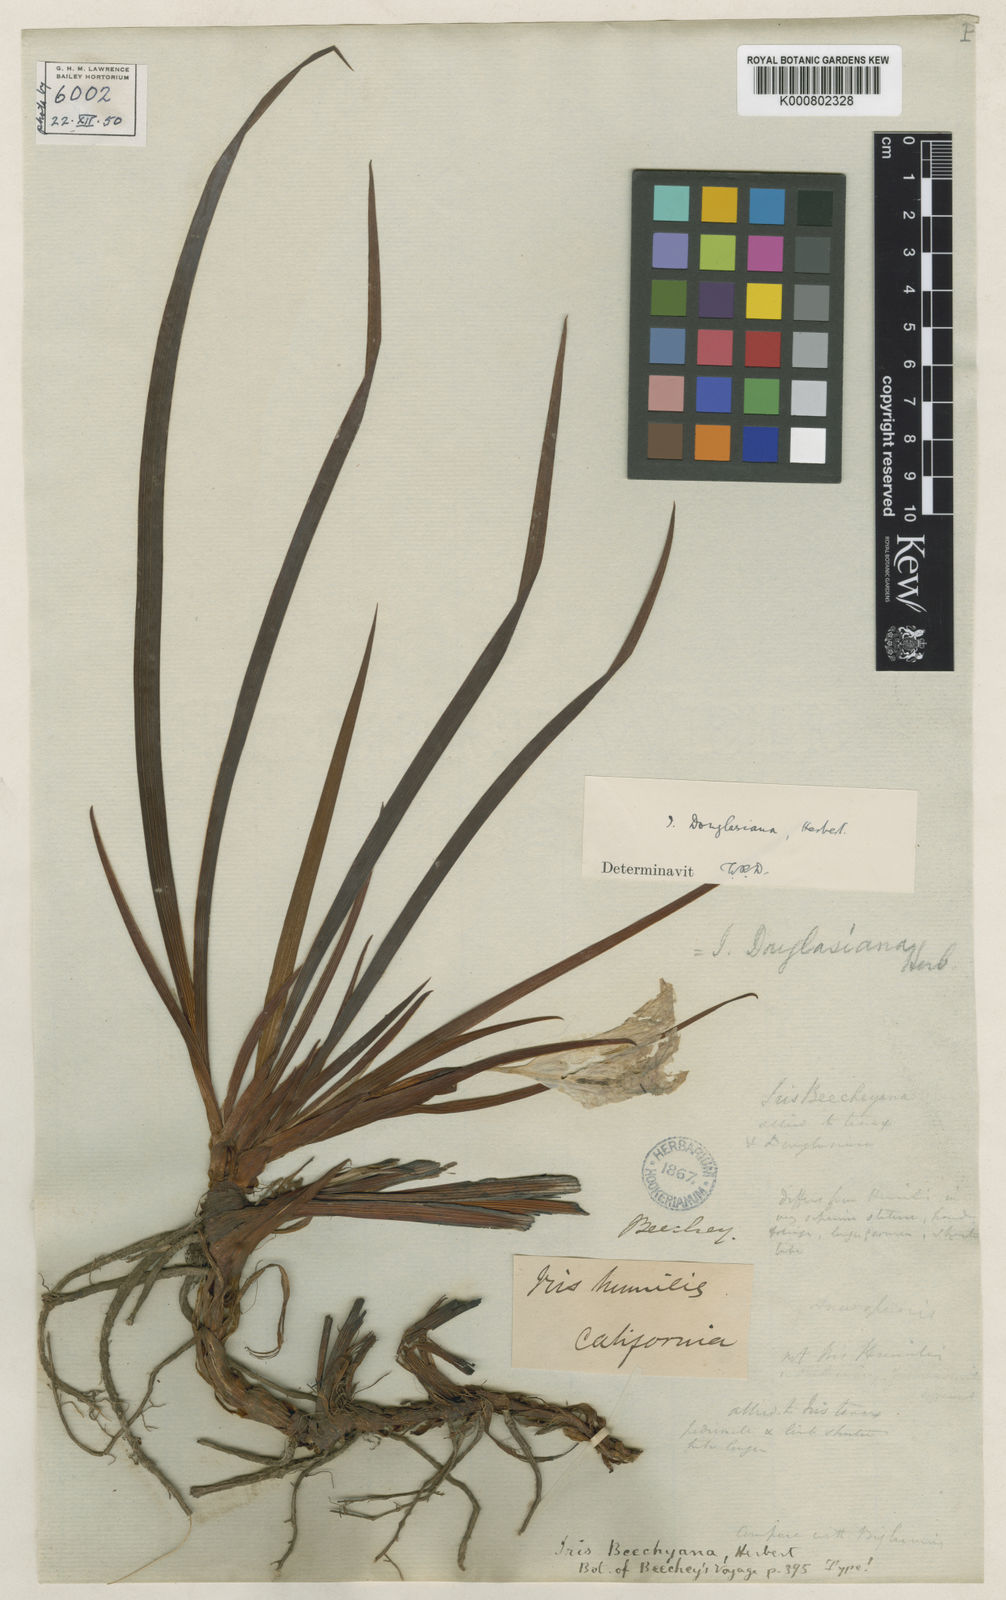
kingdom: Plantae
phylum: Tracheophyta
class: Liliopsida
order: Asparagales
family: Iridaceae
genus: Iris
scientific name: Iris douglasiana
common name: Marin iris
